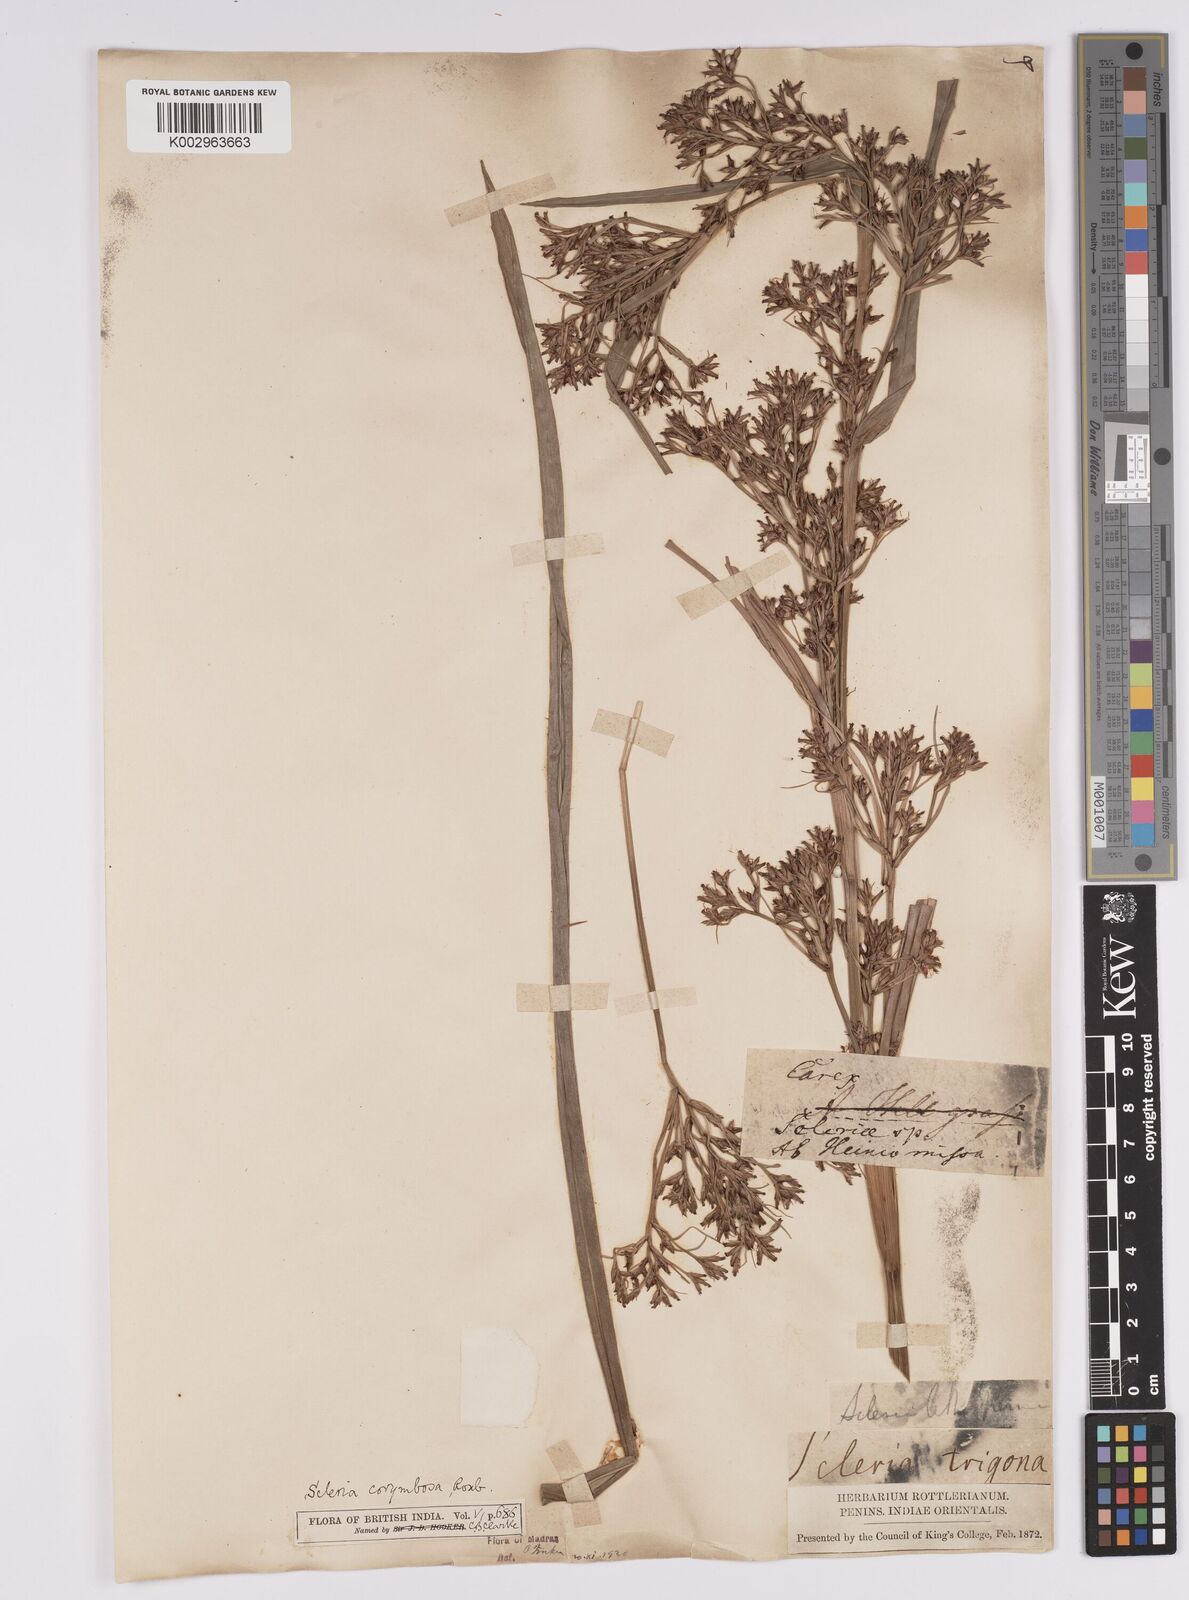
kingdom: Plantae
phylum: Tracheophyta
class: Liliopsida
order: Poales
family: Cyperaceae
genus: Scleria
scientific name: Scleria corymbosa
